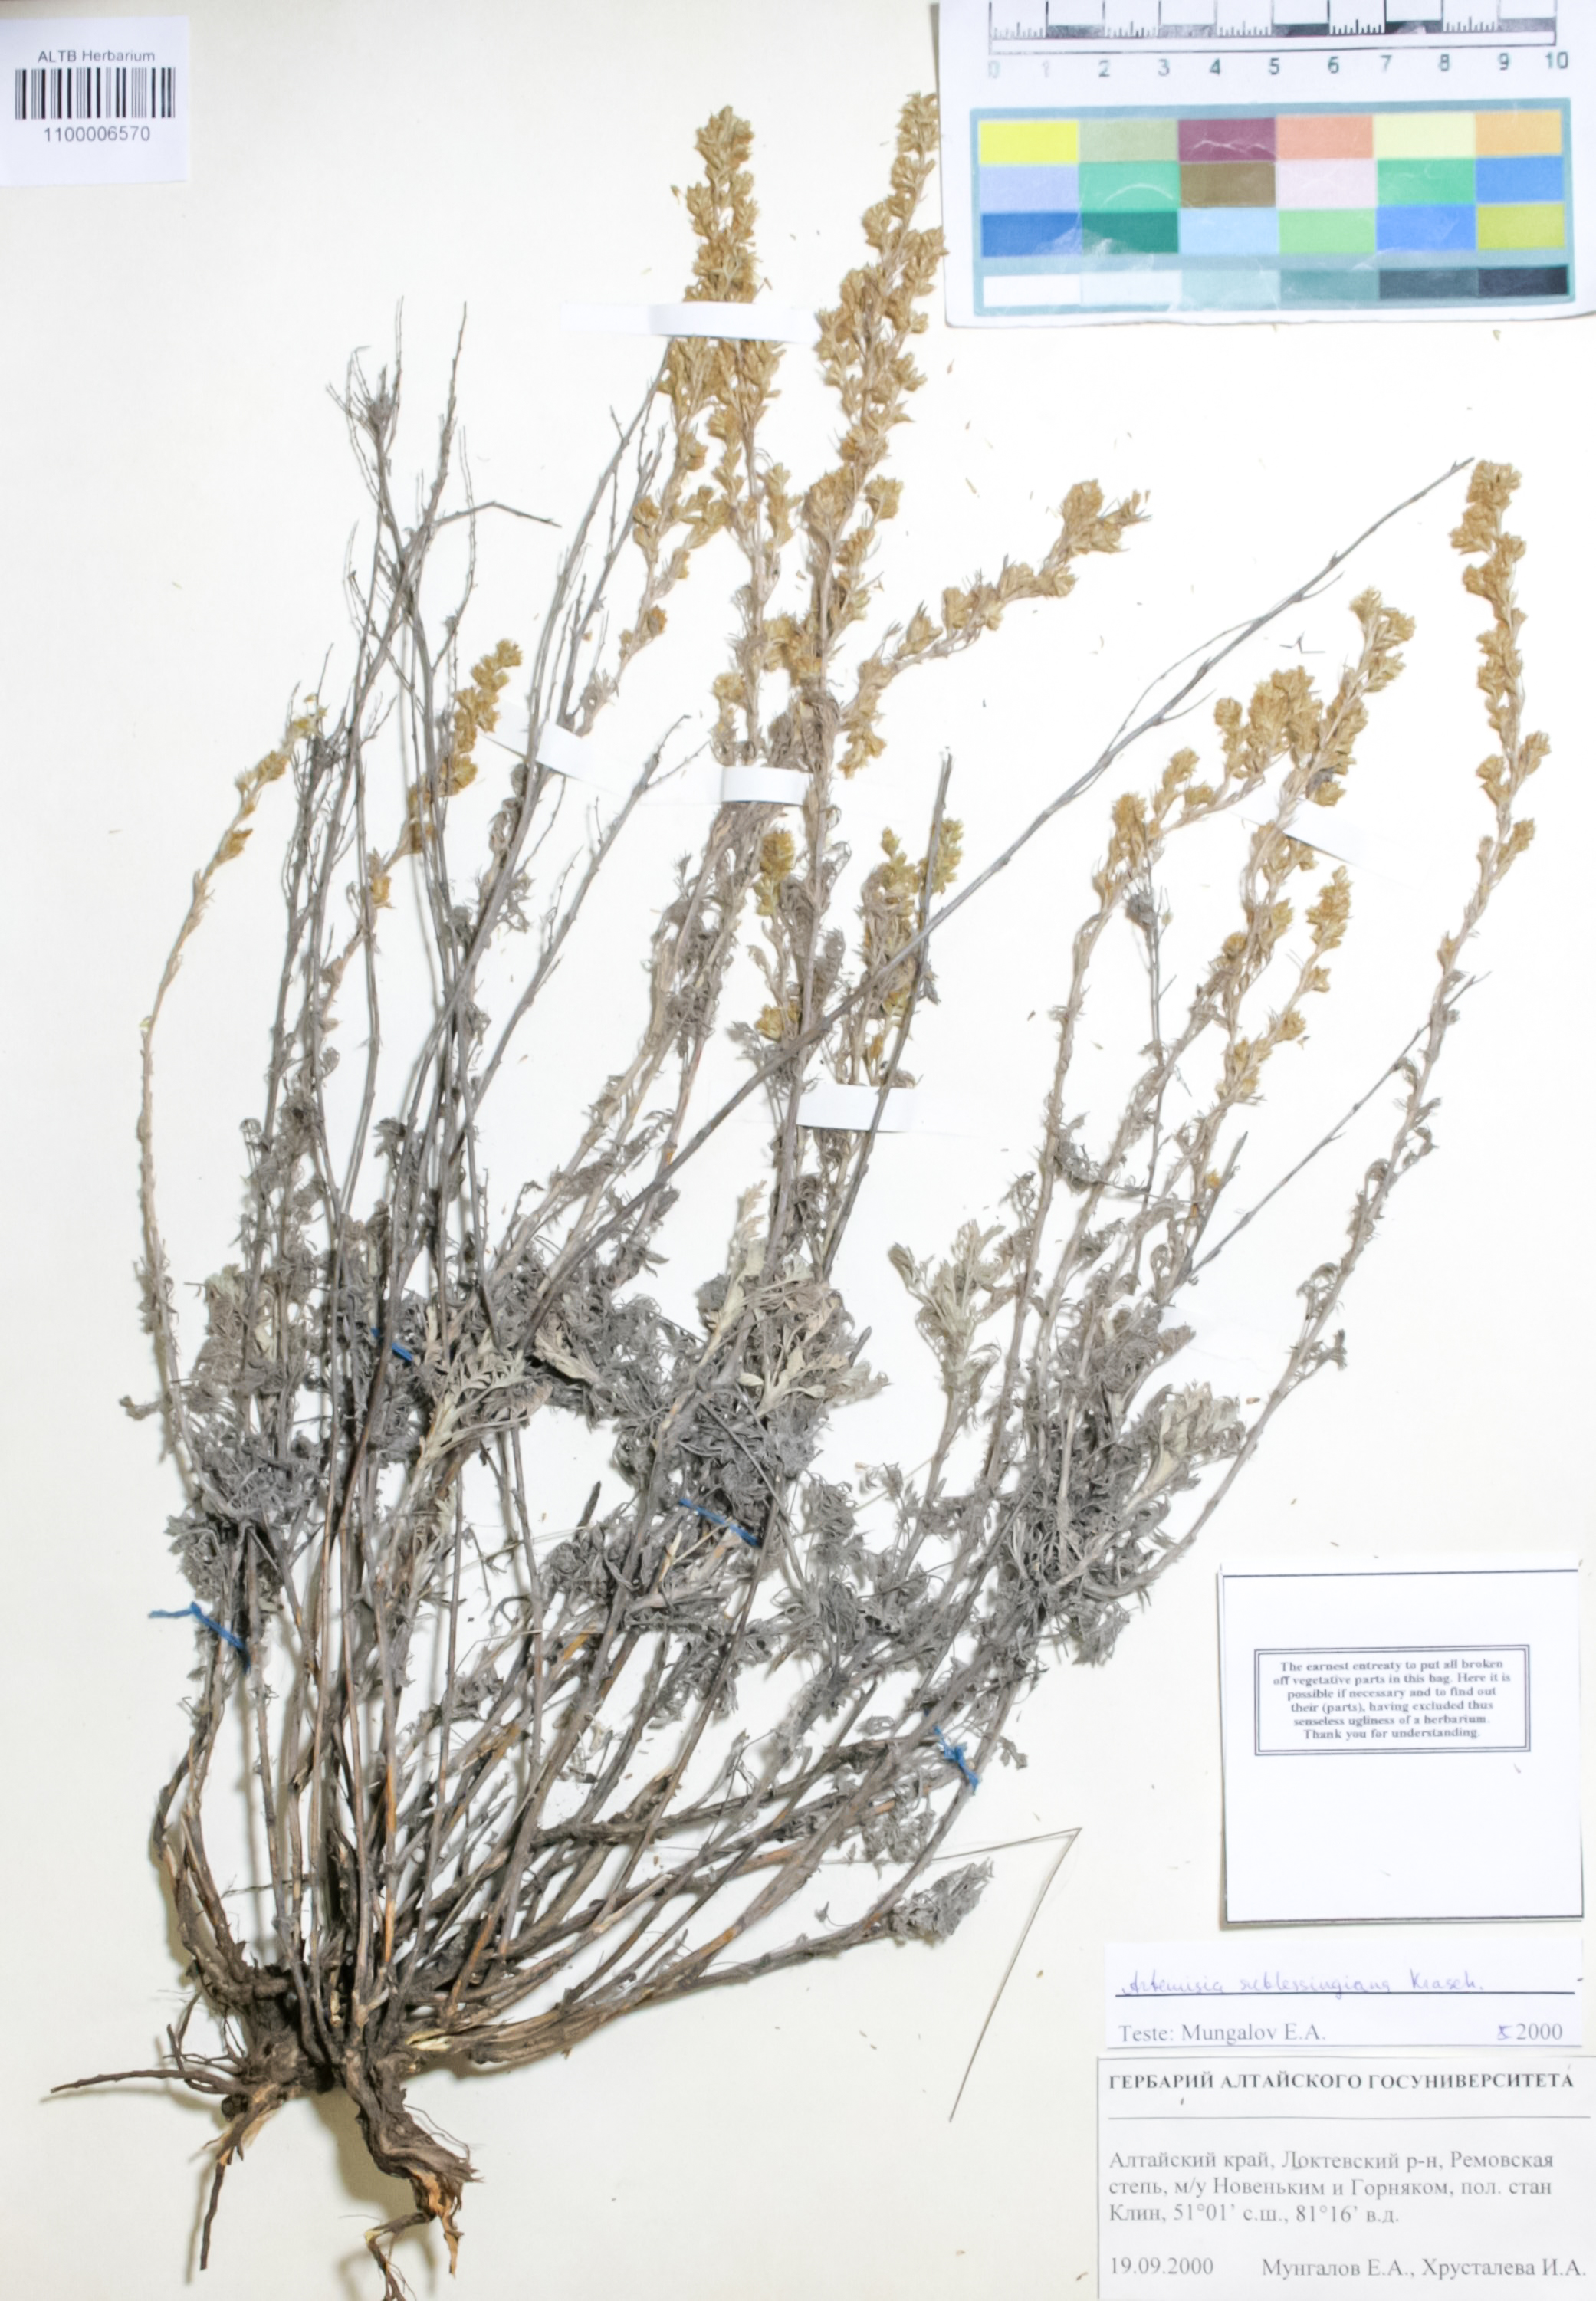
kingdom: Plantae
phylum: Tracheophyta
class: Magnoliopsida
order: Asterales
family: Asteraceae
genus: Artemisia
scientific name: Artemisia sublessingiana
